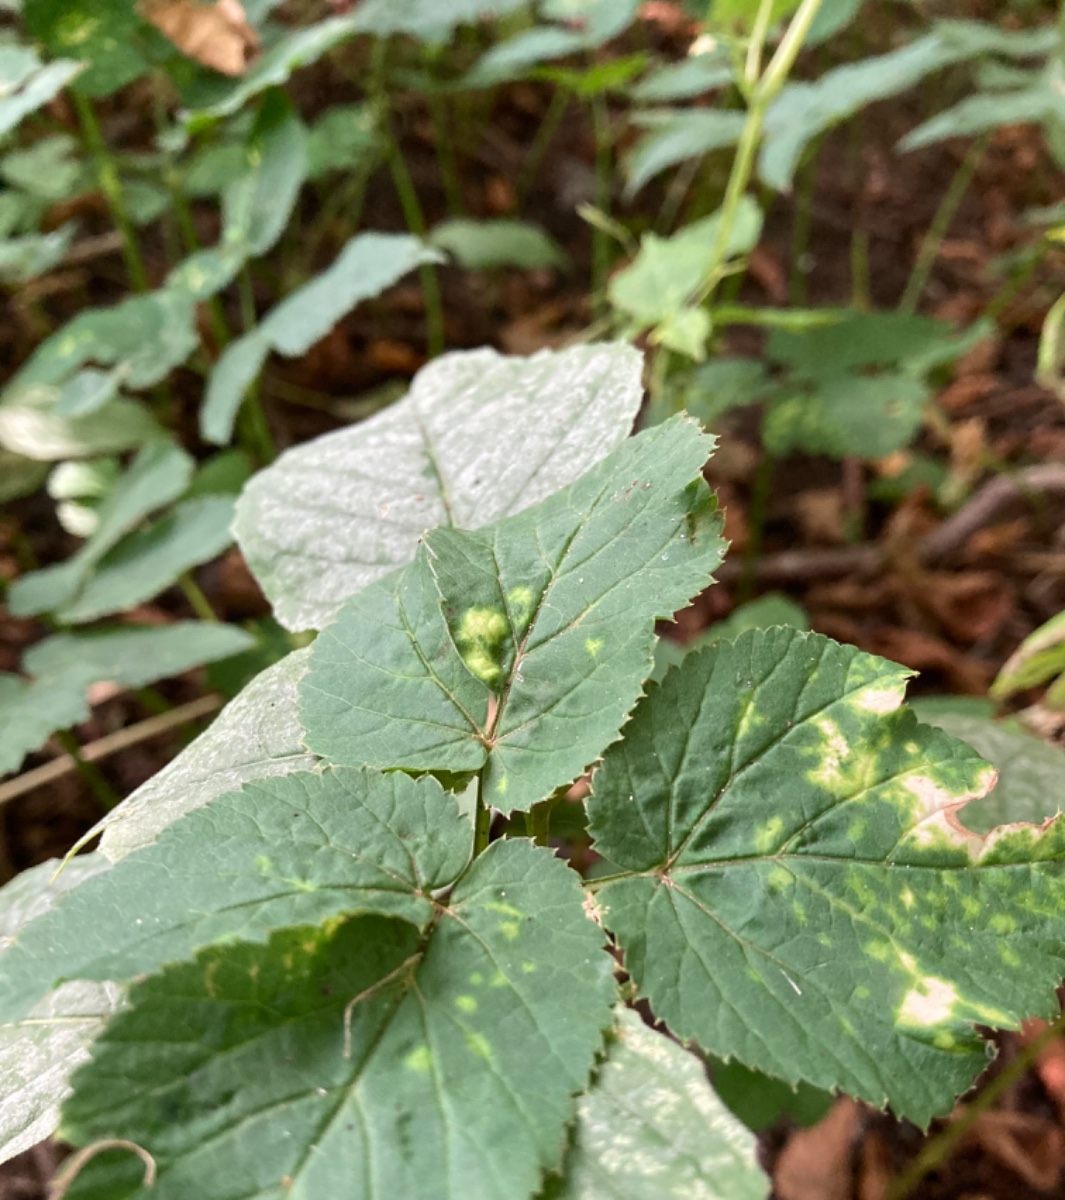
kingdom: Fungi
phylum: Ascomycota
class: Taphrinomycetes
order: Taphrinales
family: Taphrinaceae
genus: Protomyces
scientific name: Protomyces macrosporus
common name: skvalderkål-vablesæk
